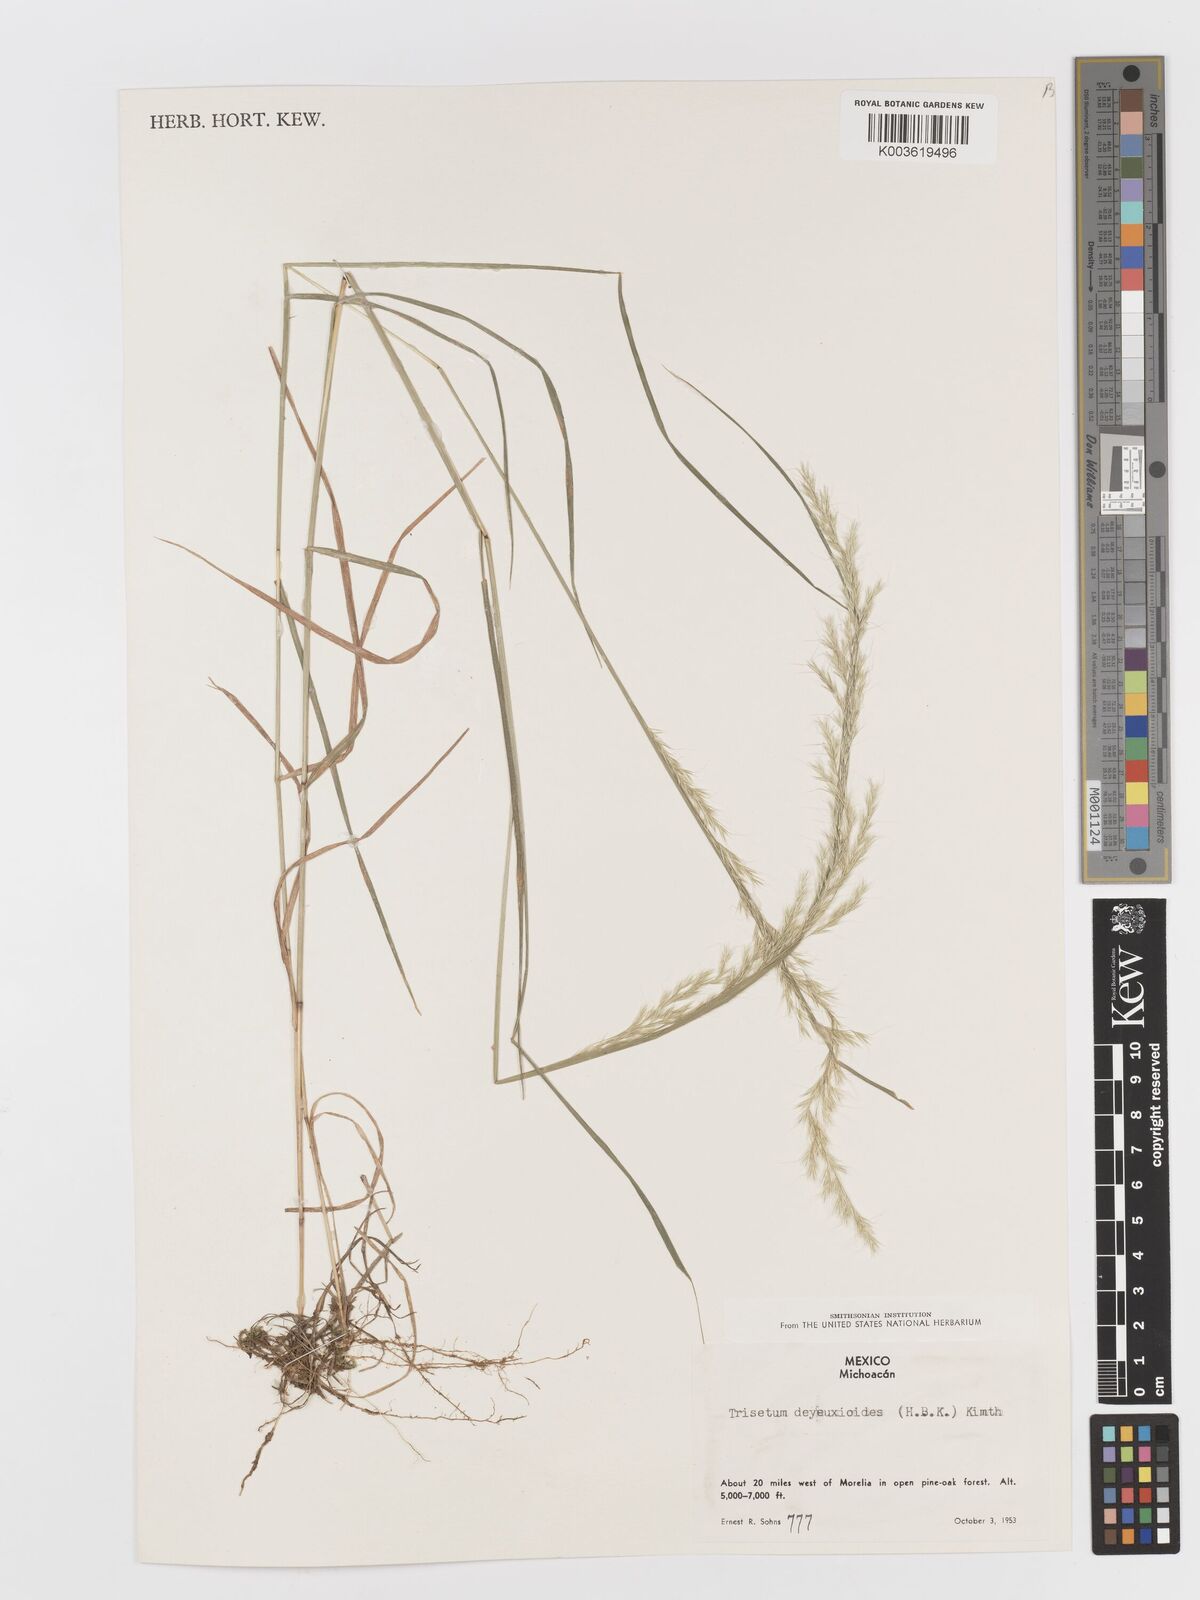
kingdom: Plantae
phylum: Tracheophyta
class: Liliopsida
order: Poales
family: Poaceae
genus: Peyritschia
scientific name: Peyritschia deyeuxioides
